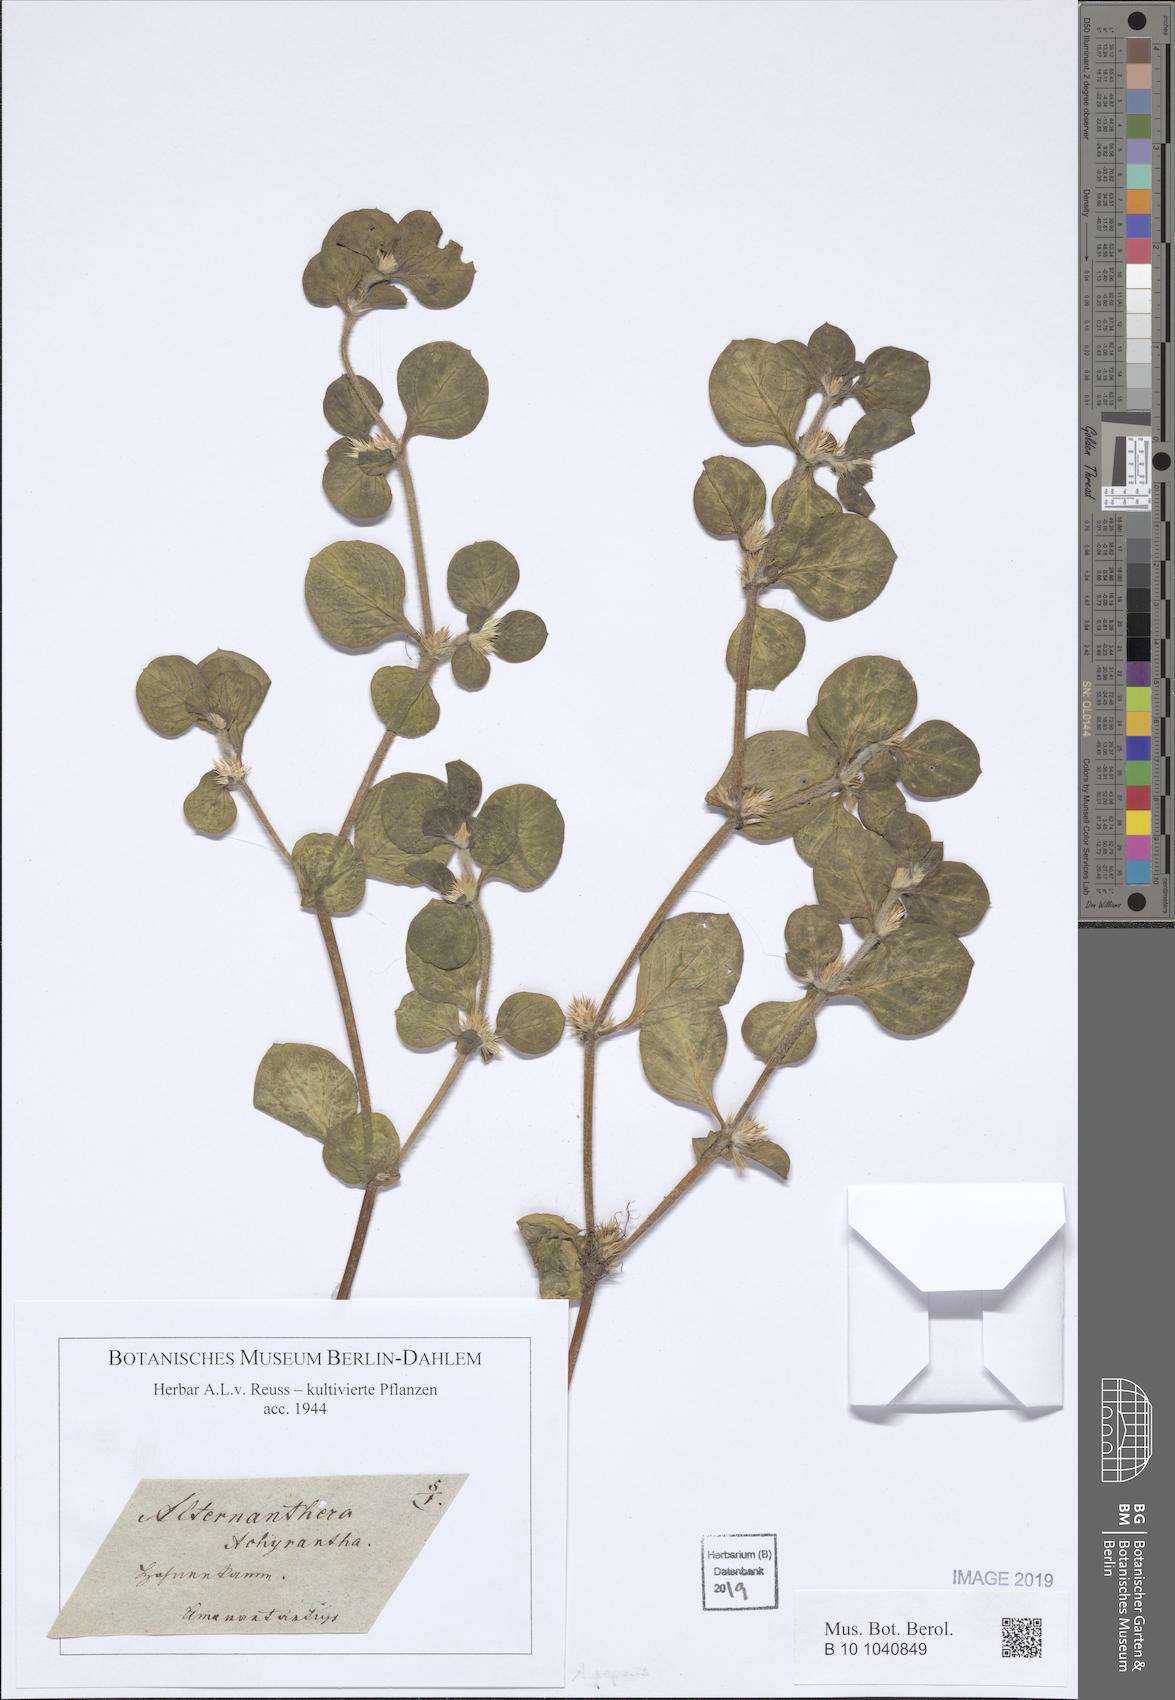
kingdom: Plantae
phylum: Tracheophyta
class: Magnoliopsida
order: Caryophyllales
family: Amaranthaceae
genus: Alternanthera
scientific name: Alternanthera sessilis
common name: Sessile joyweed
